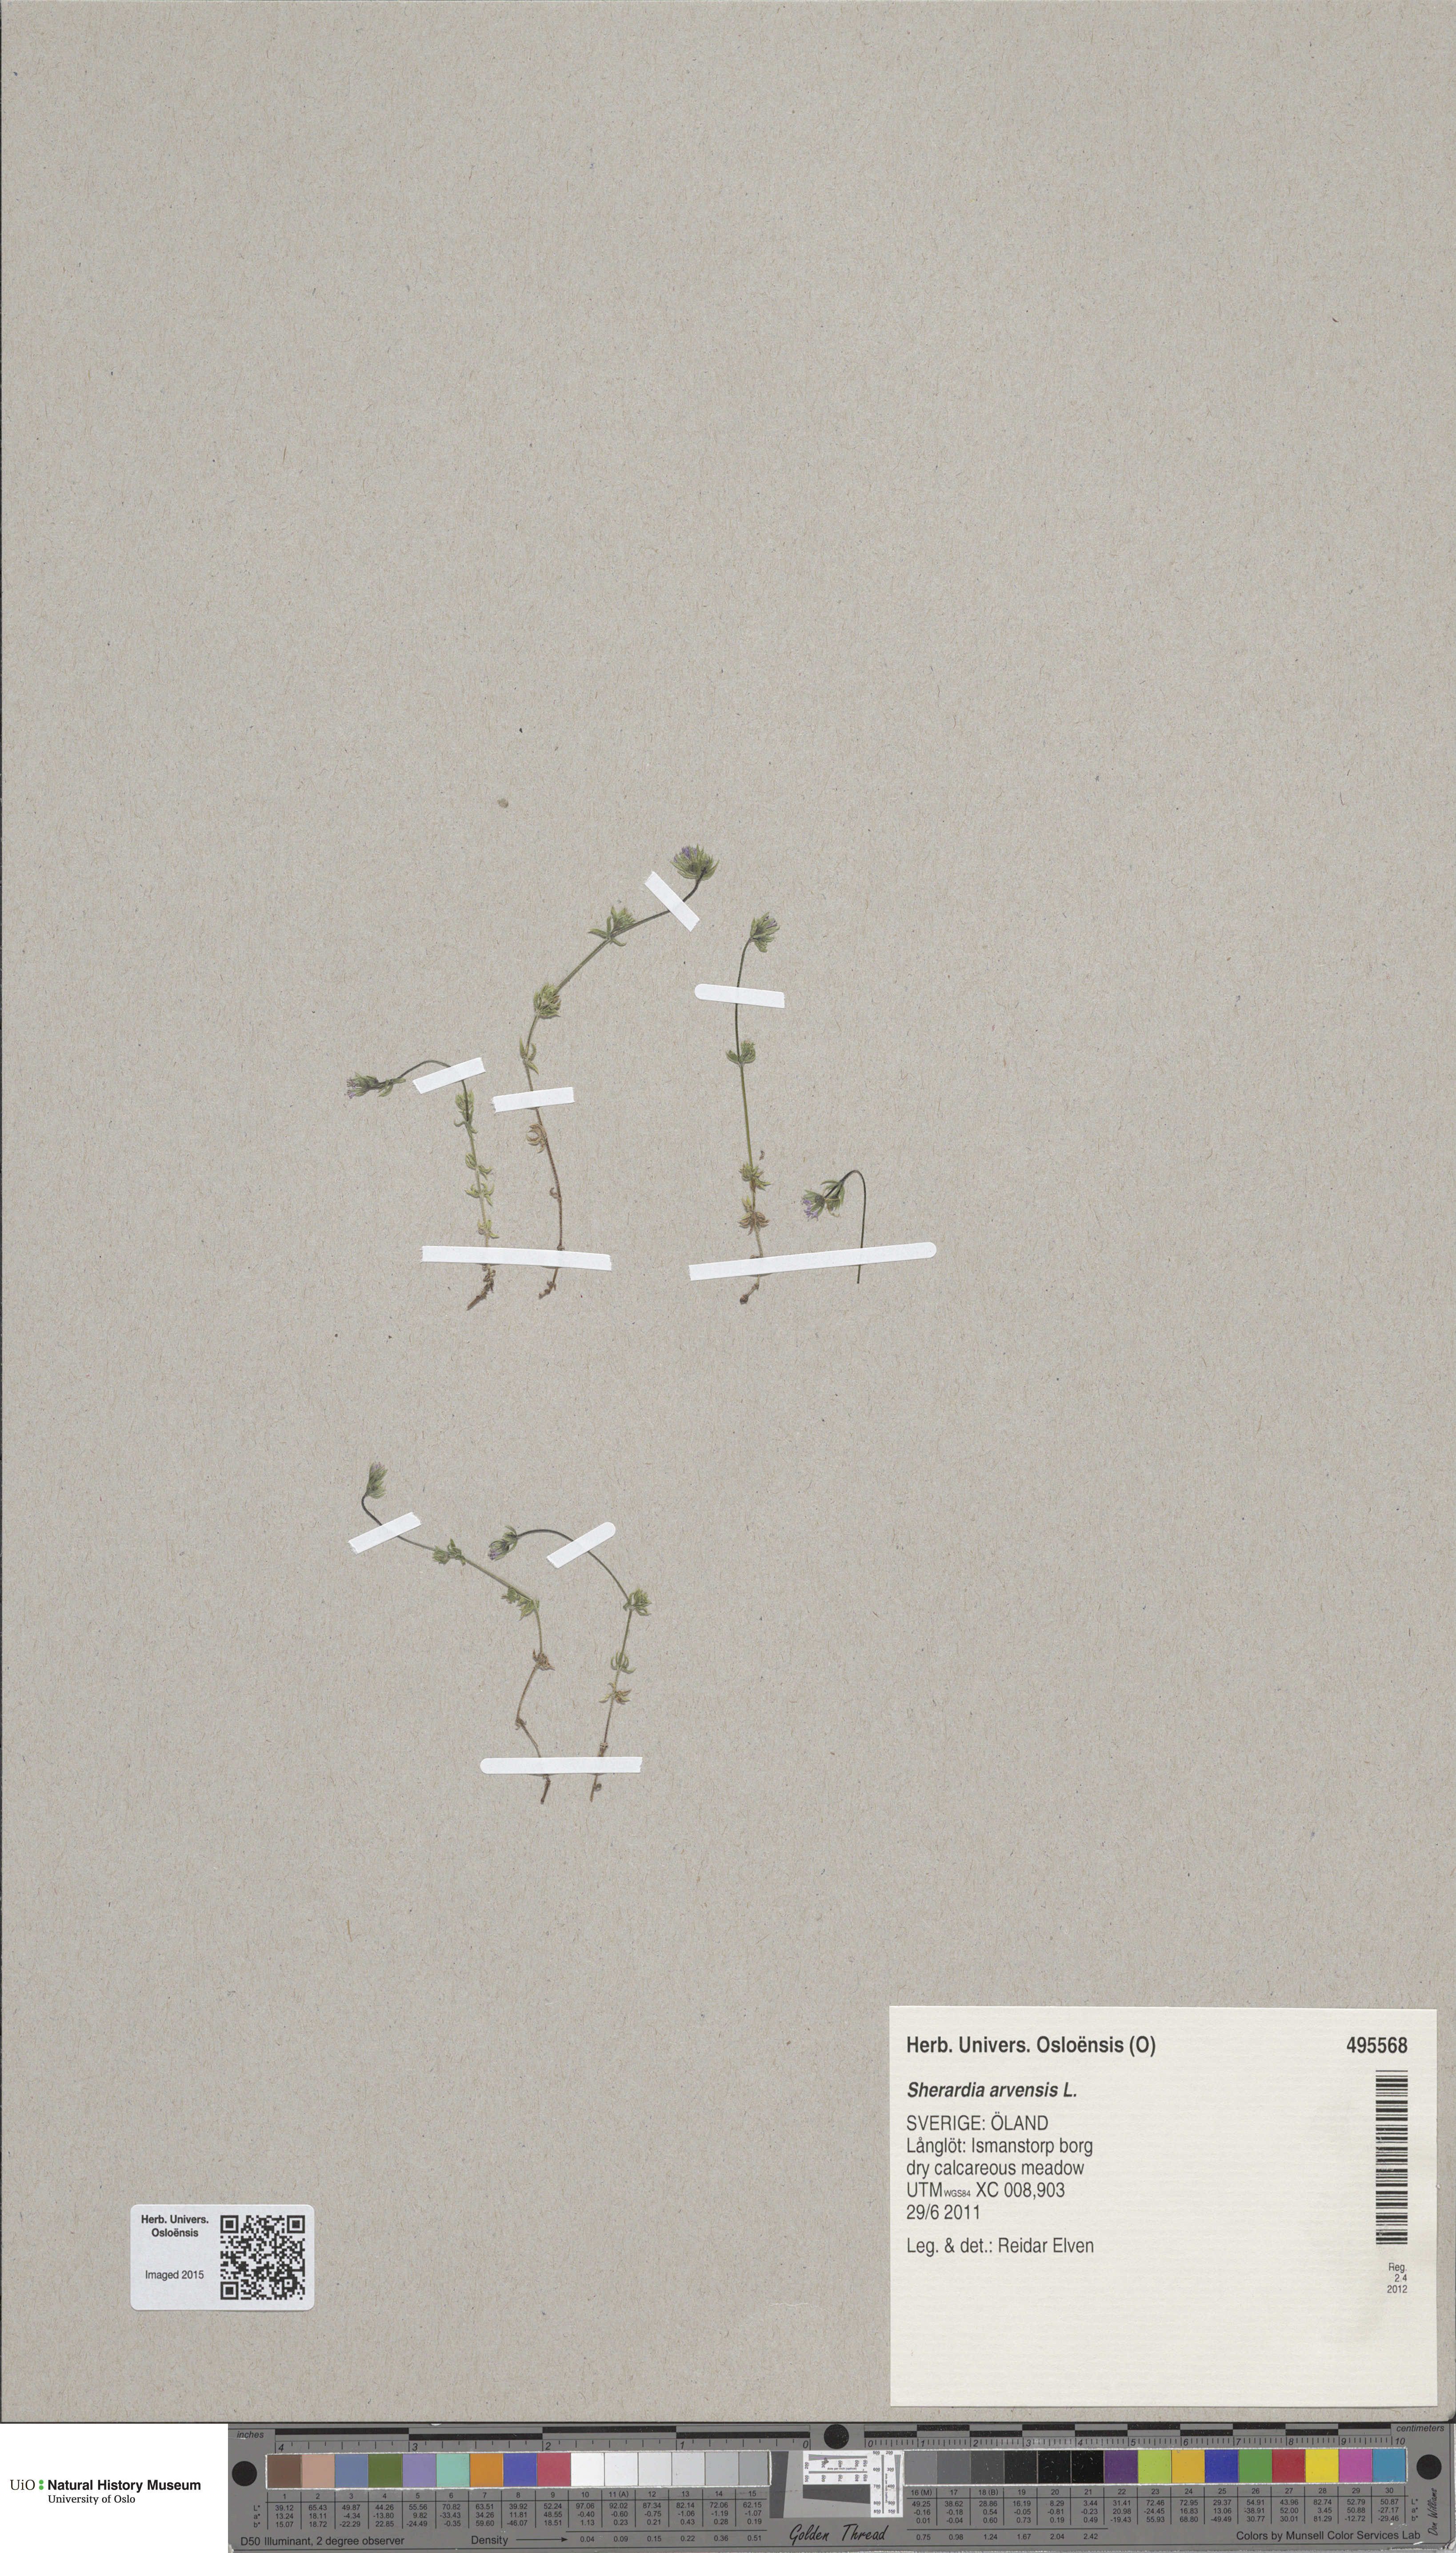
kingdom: Plantae
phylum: Tracheophyta
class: Magnoliopsida
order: Gentianales
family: Rubiaceae
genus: Sherardia
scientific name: Sherardia arvensis
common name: Field madder
